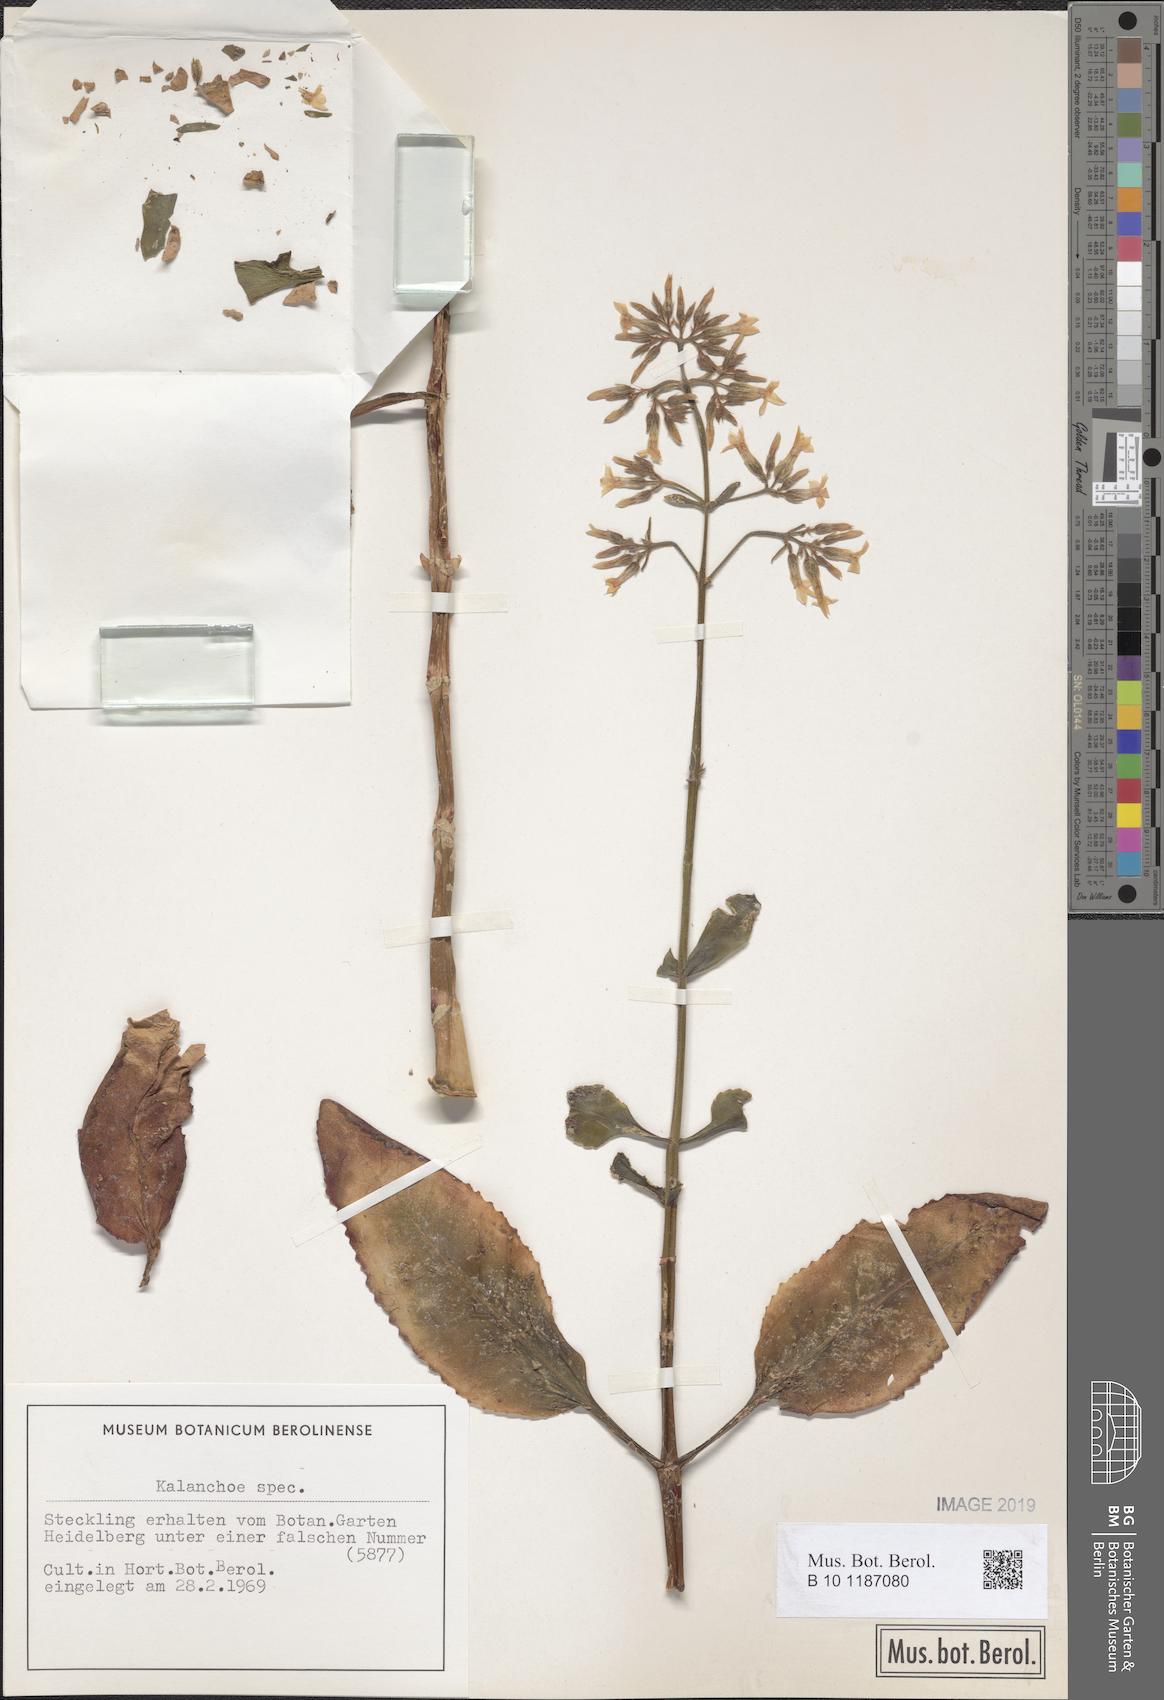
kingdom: Plantae
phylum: Tracheophyta
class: Magnoliopsida
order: Saxifragales
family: Crassulaceae
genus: Kalanchoe
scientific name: Kalanchoe
